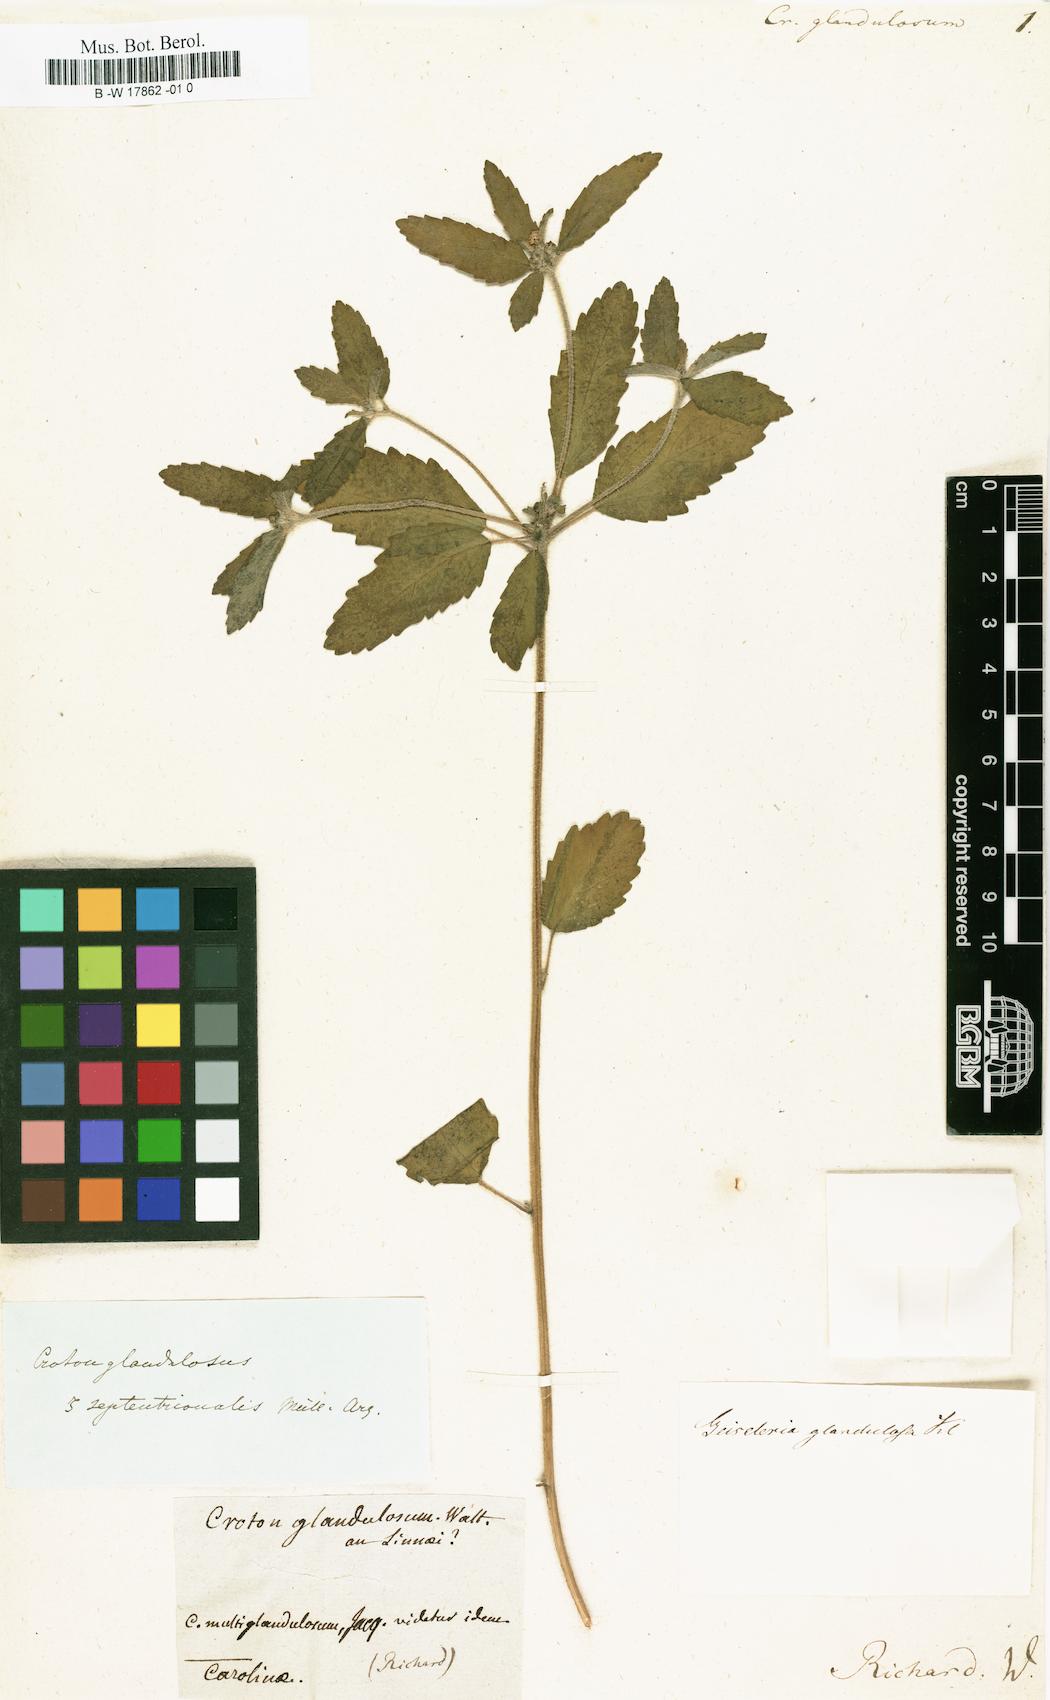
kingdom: Plantae
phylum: Tracheophyta
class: Magnoliopsida
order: Malpighiales
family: Euphorbiaceae
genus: Croton
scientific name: Croton glandulosus
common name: Tropic croton
